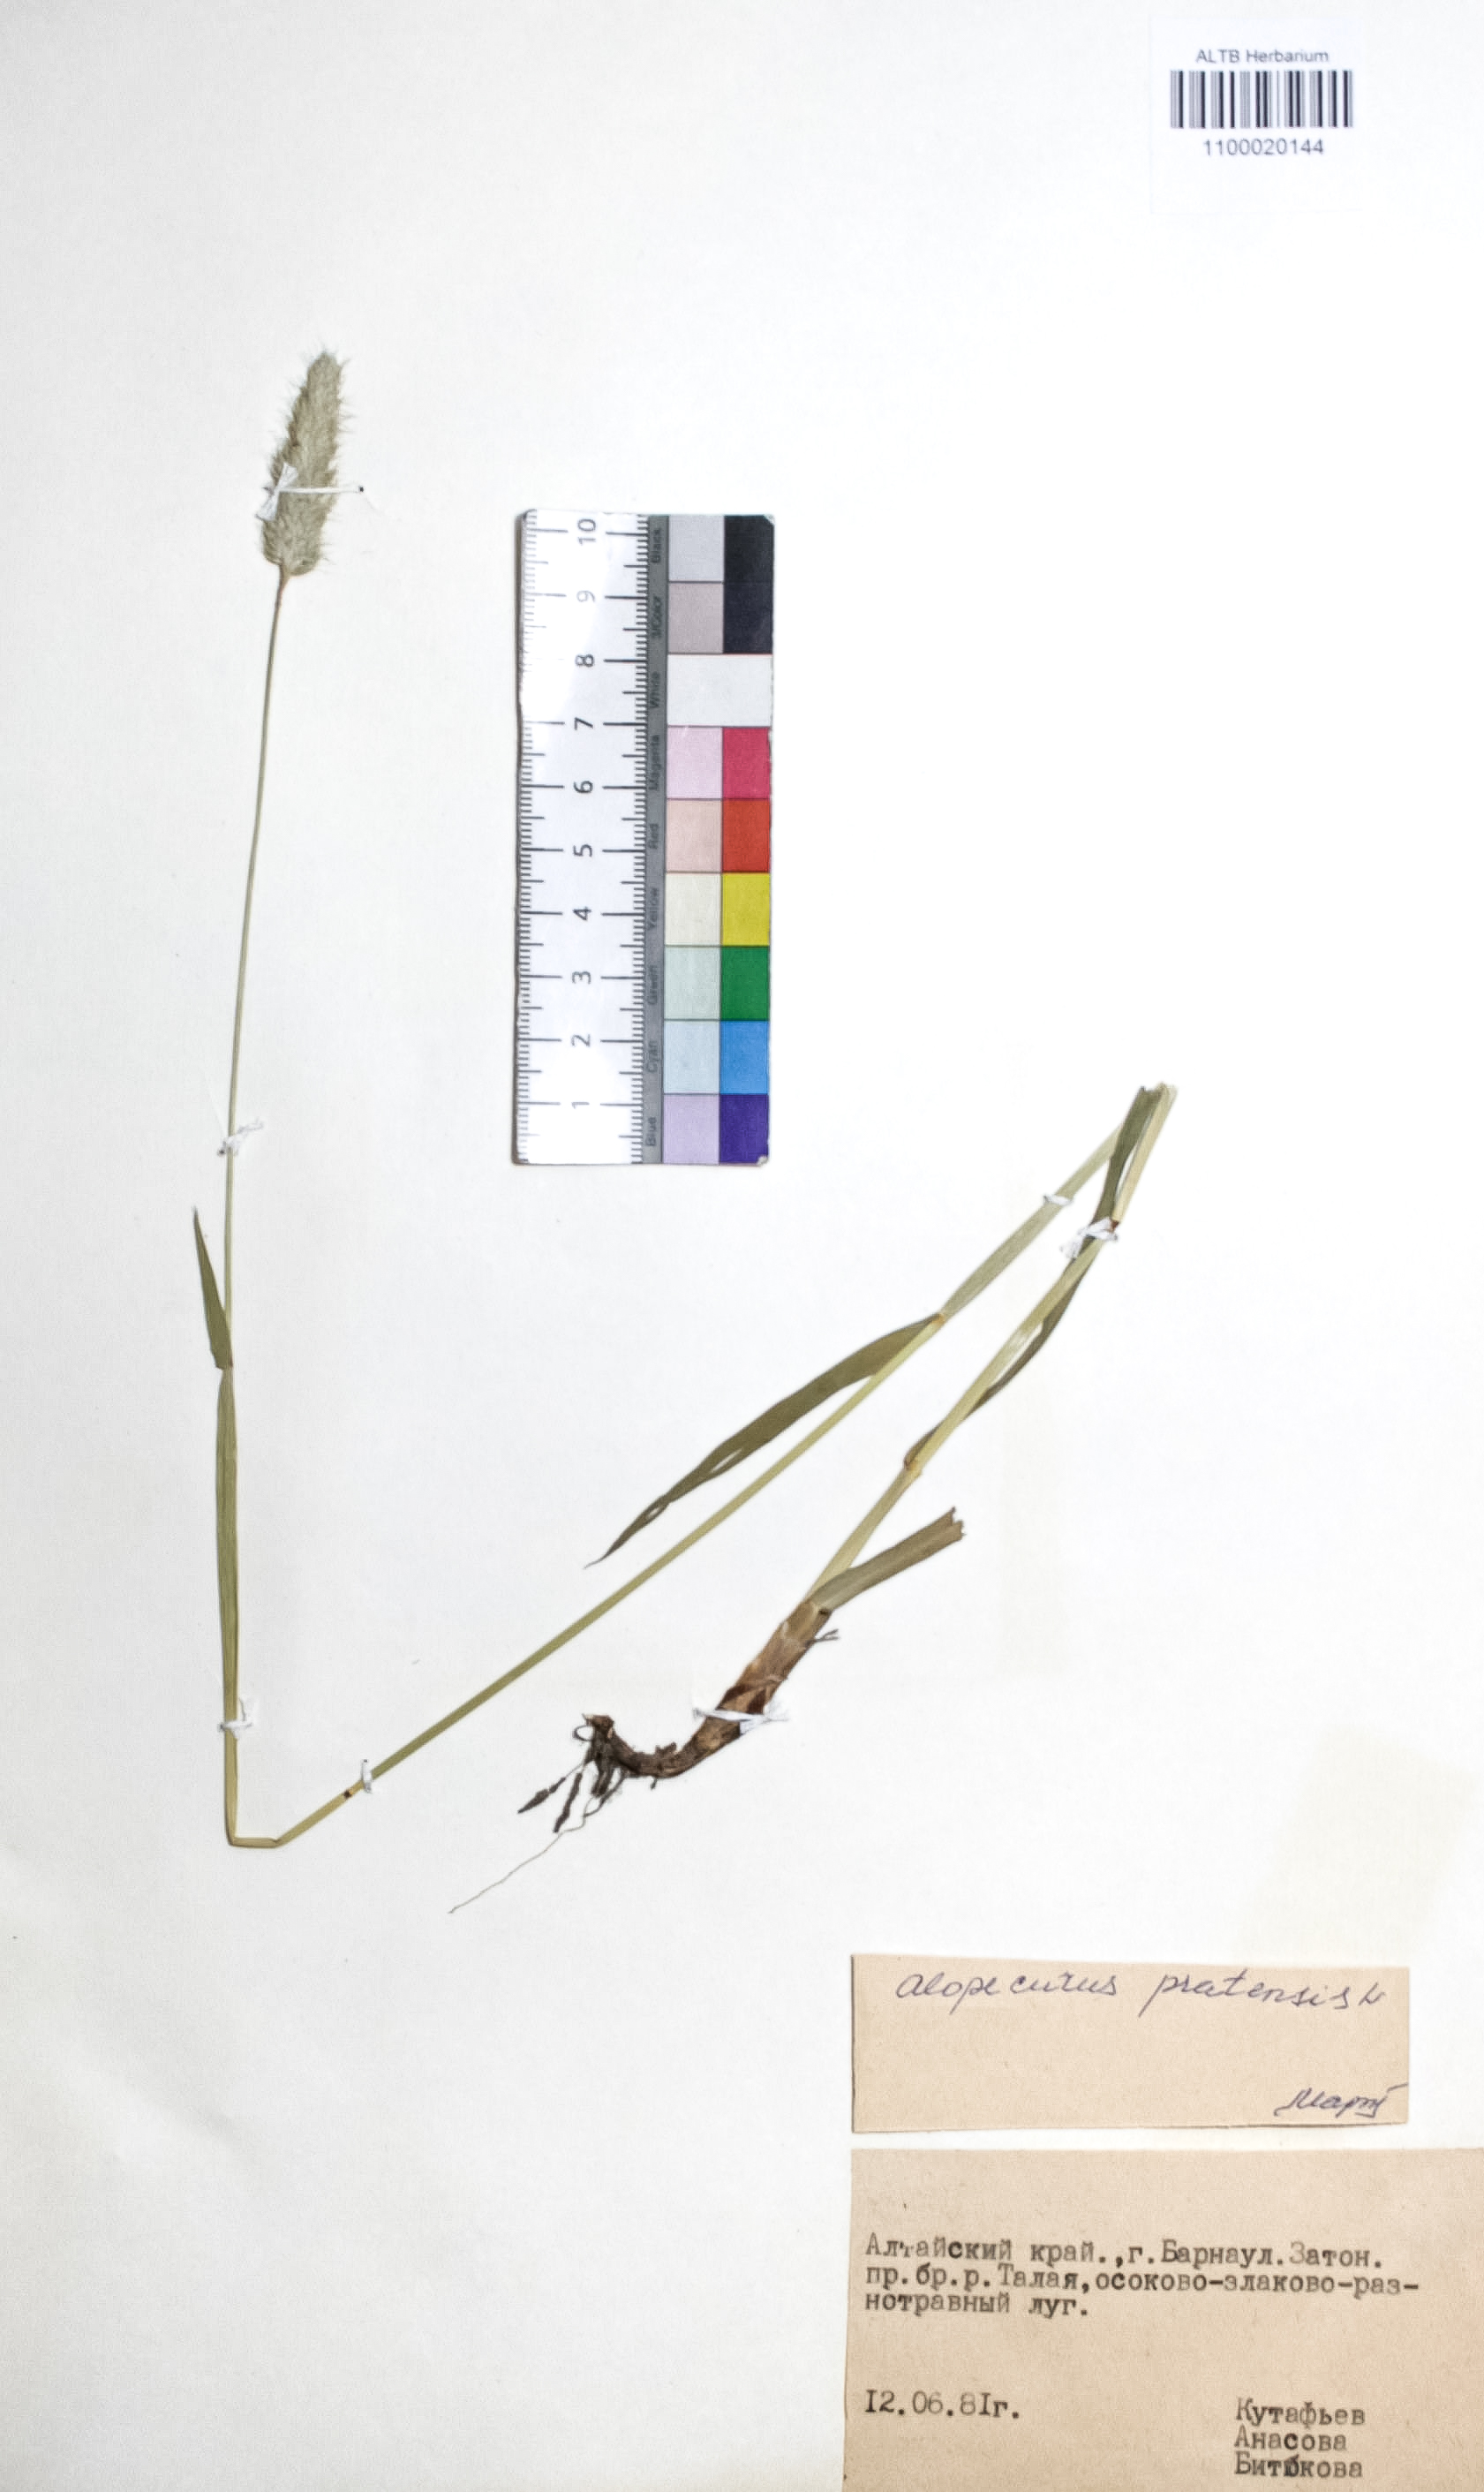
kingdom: Plantae
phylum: Tracheophyta
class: Liliopsida
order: Poales
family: Poaceae
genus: Alopecurus
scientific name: Alopecurus pratensis
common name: Meadow foxtail
